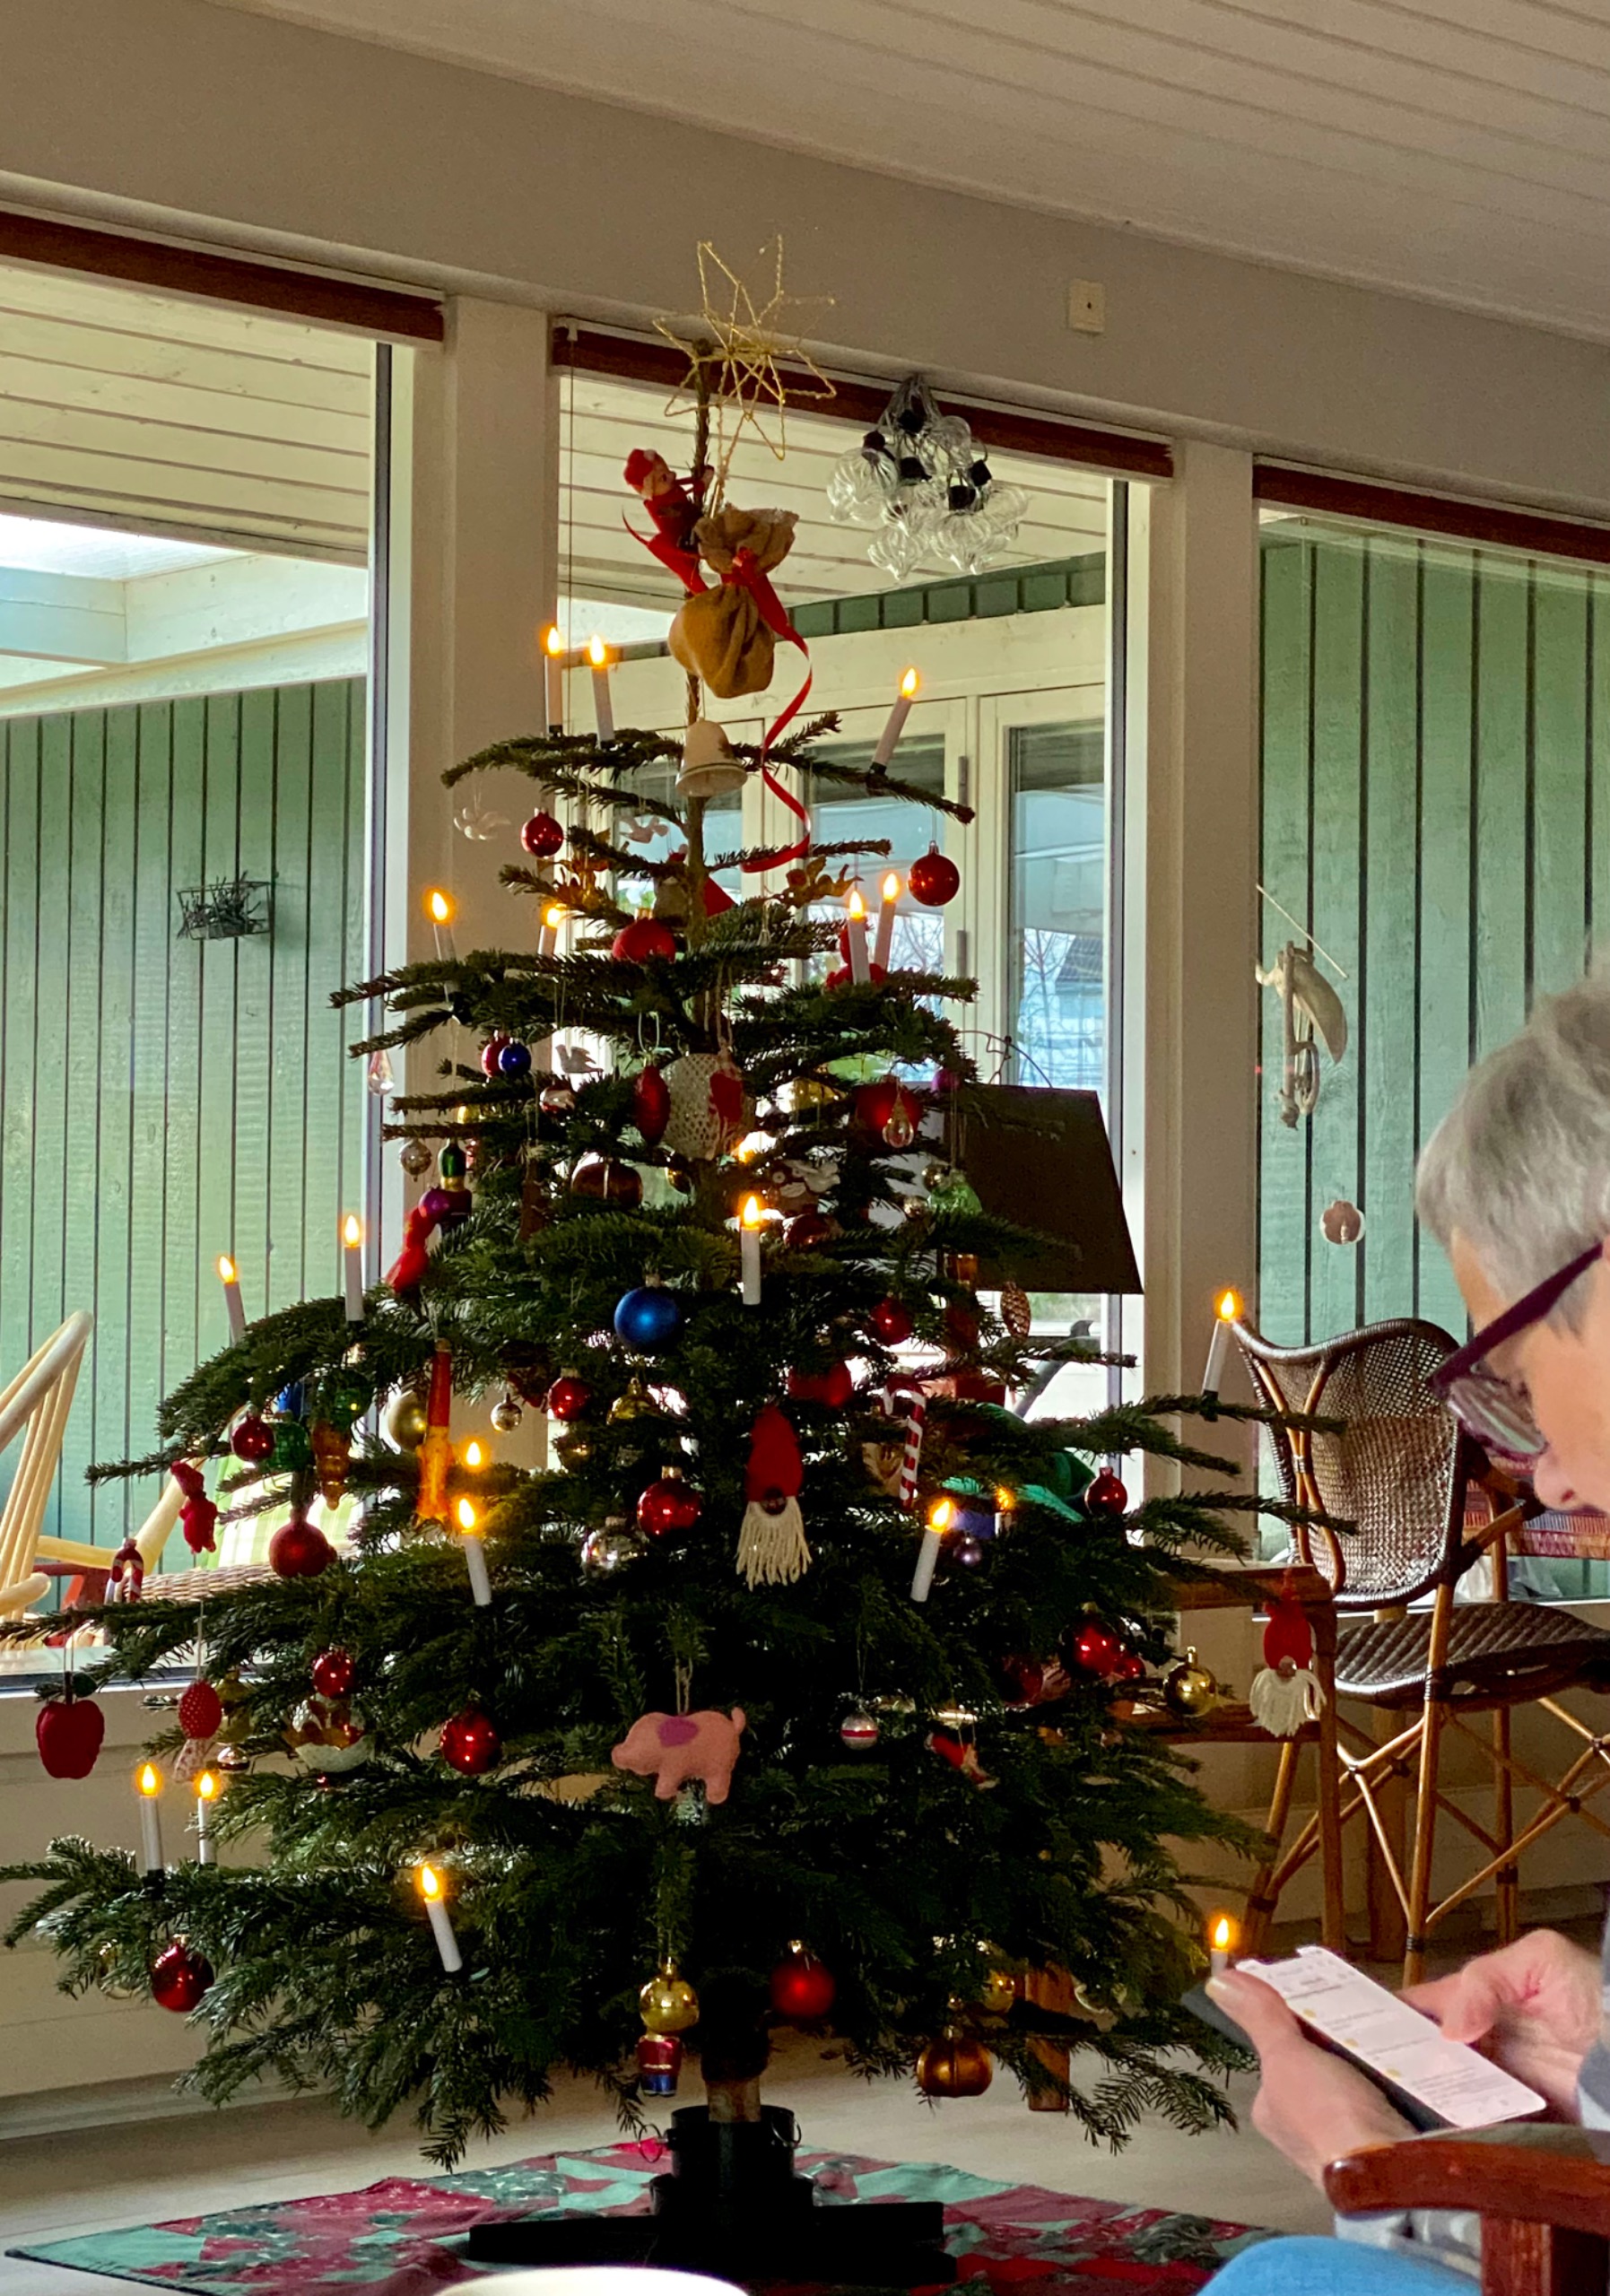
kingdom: Fungi
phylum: Basidiomycota
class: Tremellomycetes
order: Tremellales
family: Tremellaceae
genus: Tremella
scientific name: Tremella mesenterica
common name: Gul bævresvamp
